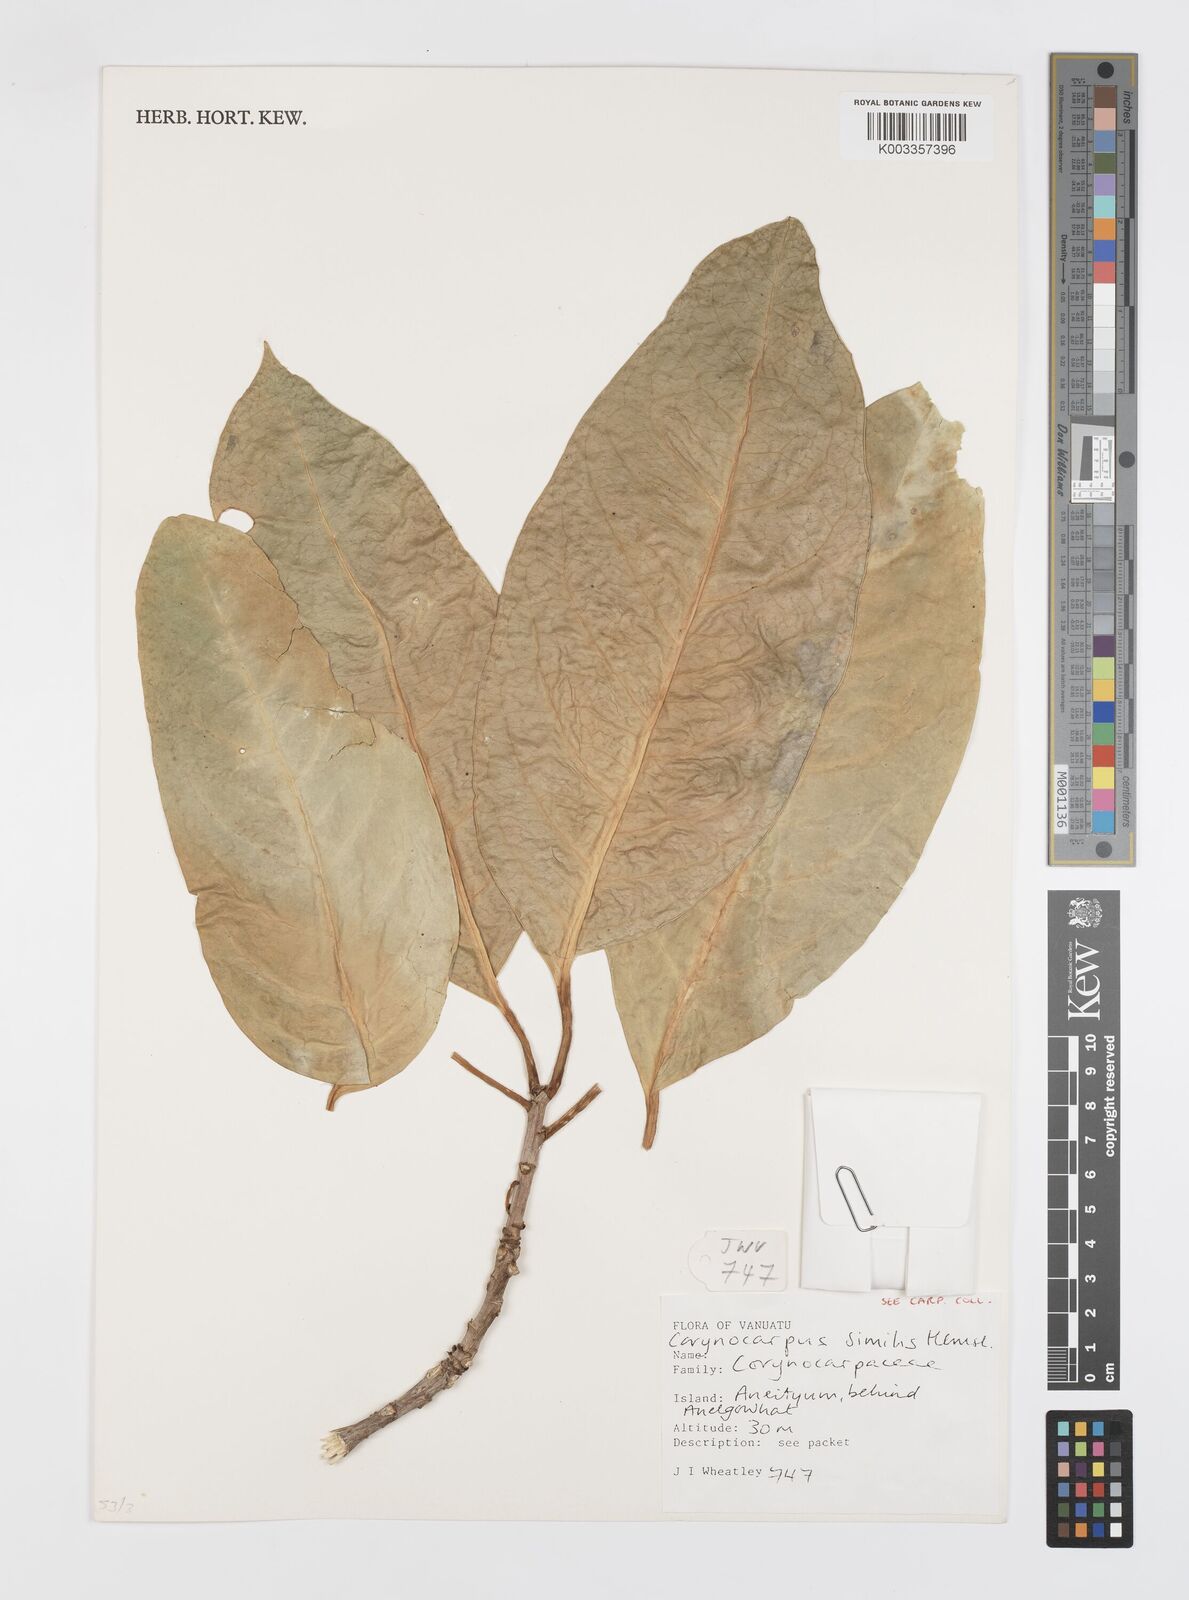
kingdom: Plantae
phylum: Tracheophyta
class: Magnoliopsida
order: Cucurbitales
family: Corynocarpaceae
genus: Corynocarpus
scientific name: Corynocarpus similis
